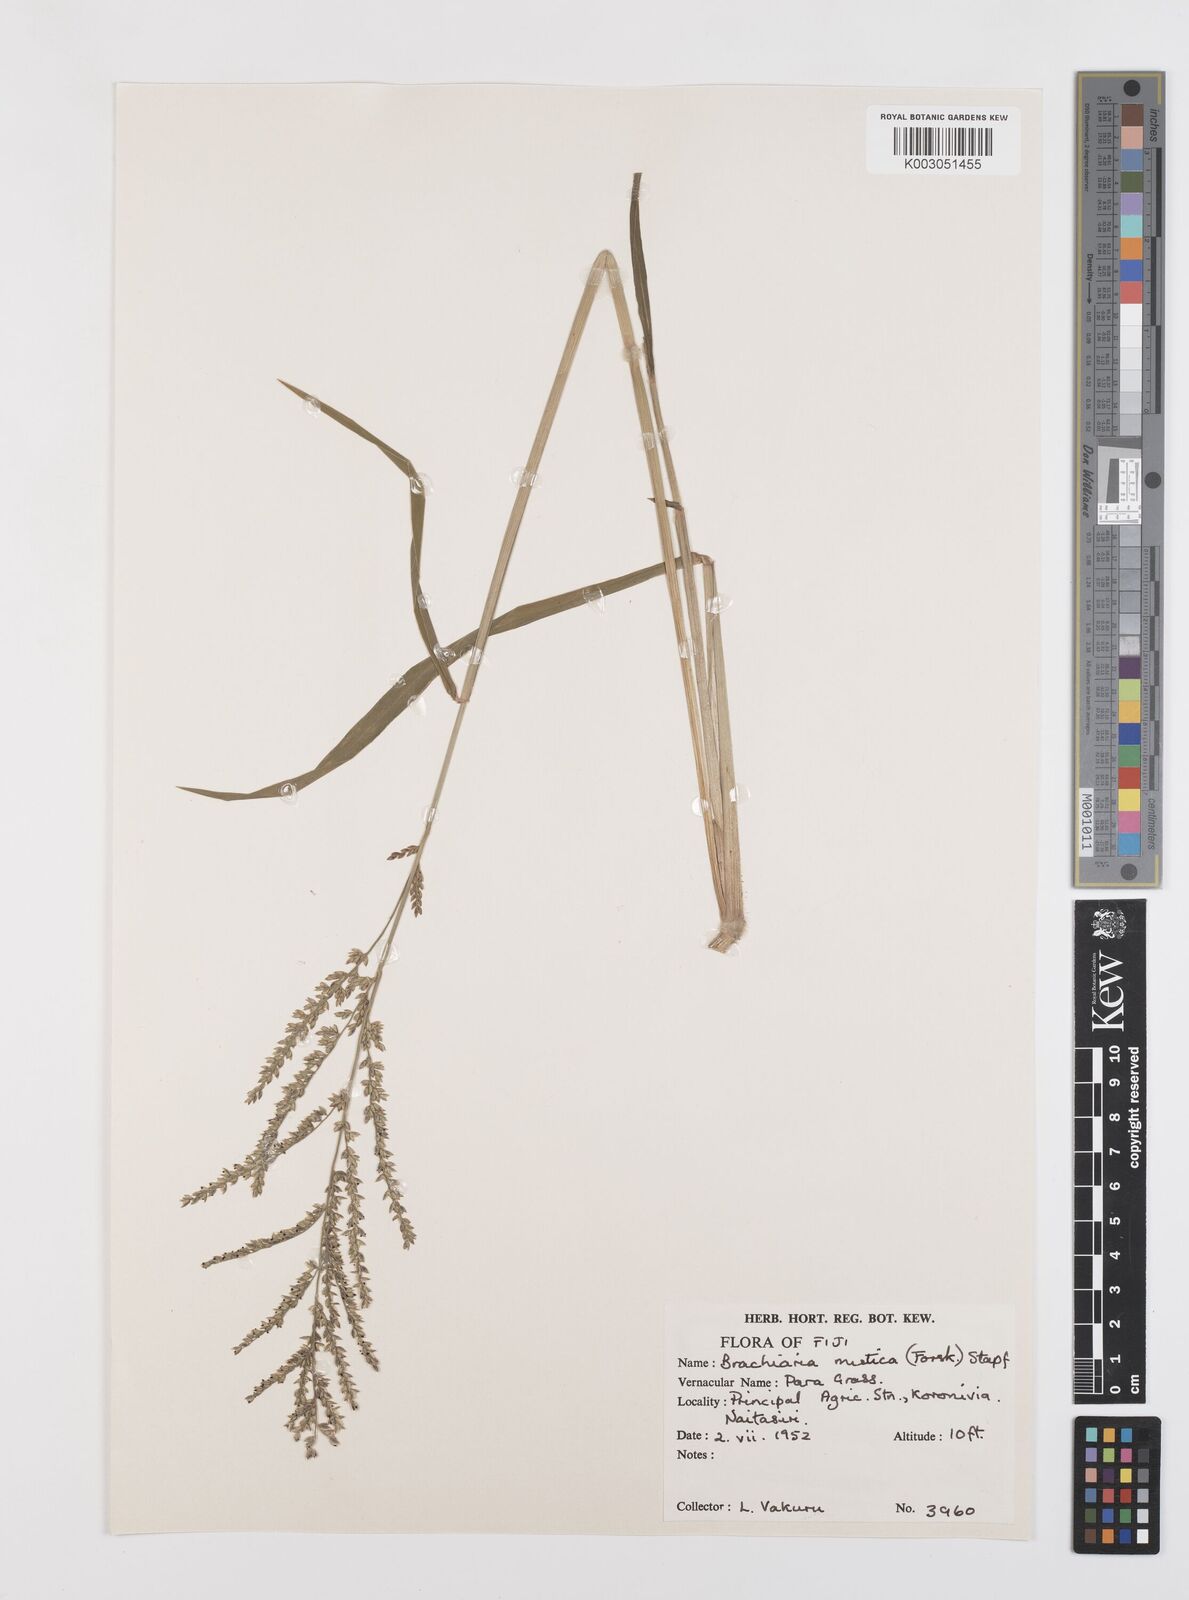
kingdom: Plantae
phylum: Tracheophyta
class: Liliopsida
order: Poales
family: Poaceae
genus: Urochloa
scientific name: Urochloa mutica
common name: Para grass
